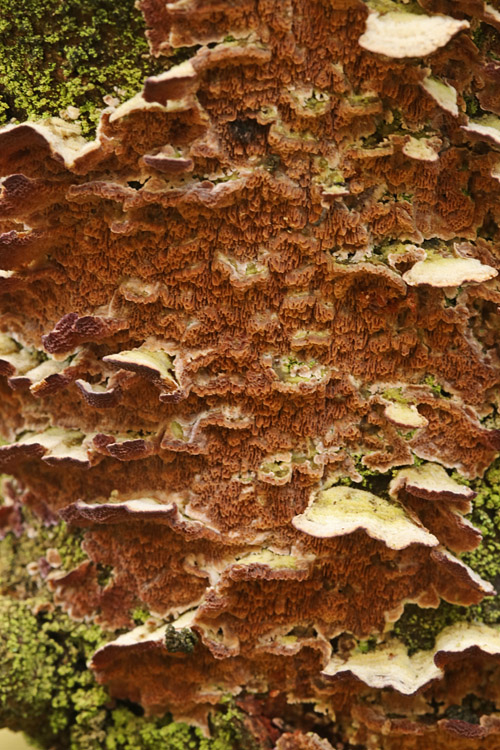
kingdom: Fungi
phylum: Basidiomycota
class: Agaricomycetes
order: Hymenochaetales
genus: Trichaptum
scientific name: Trichaptum fuscoviolaceum
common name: tandet violporesvamp
